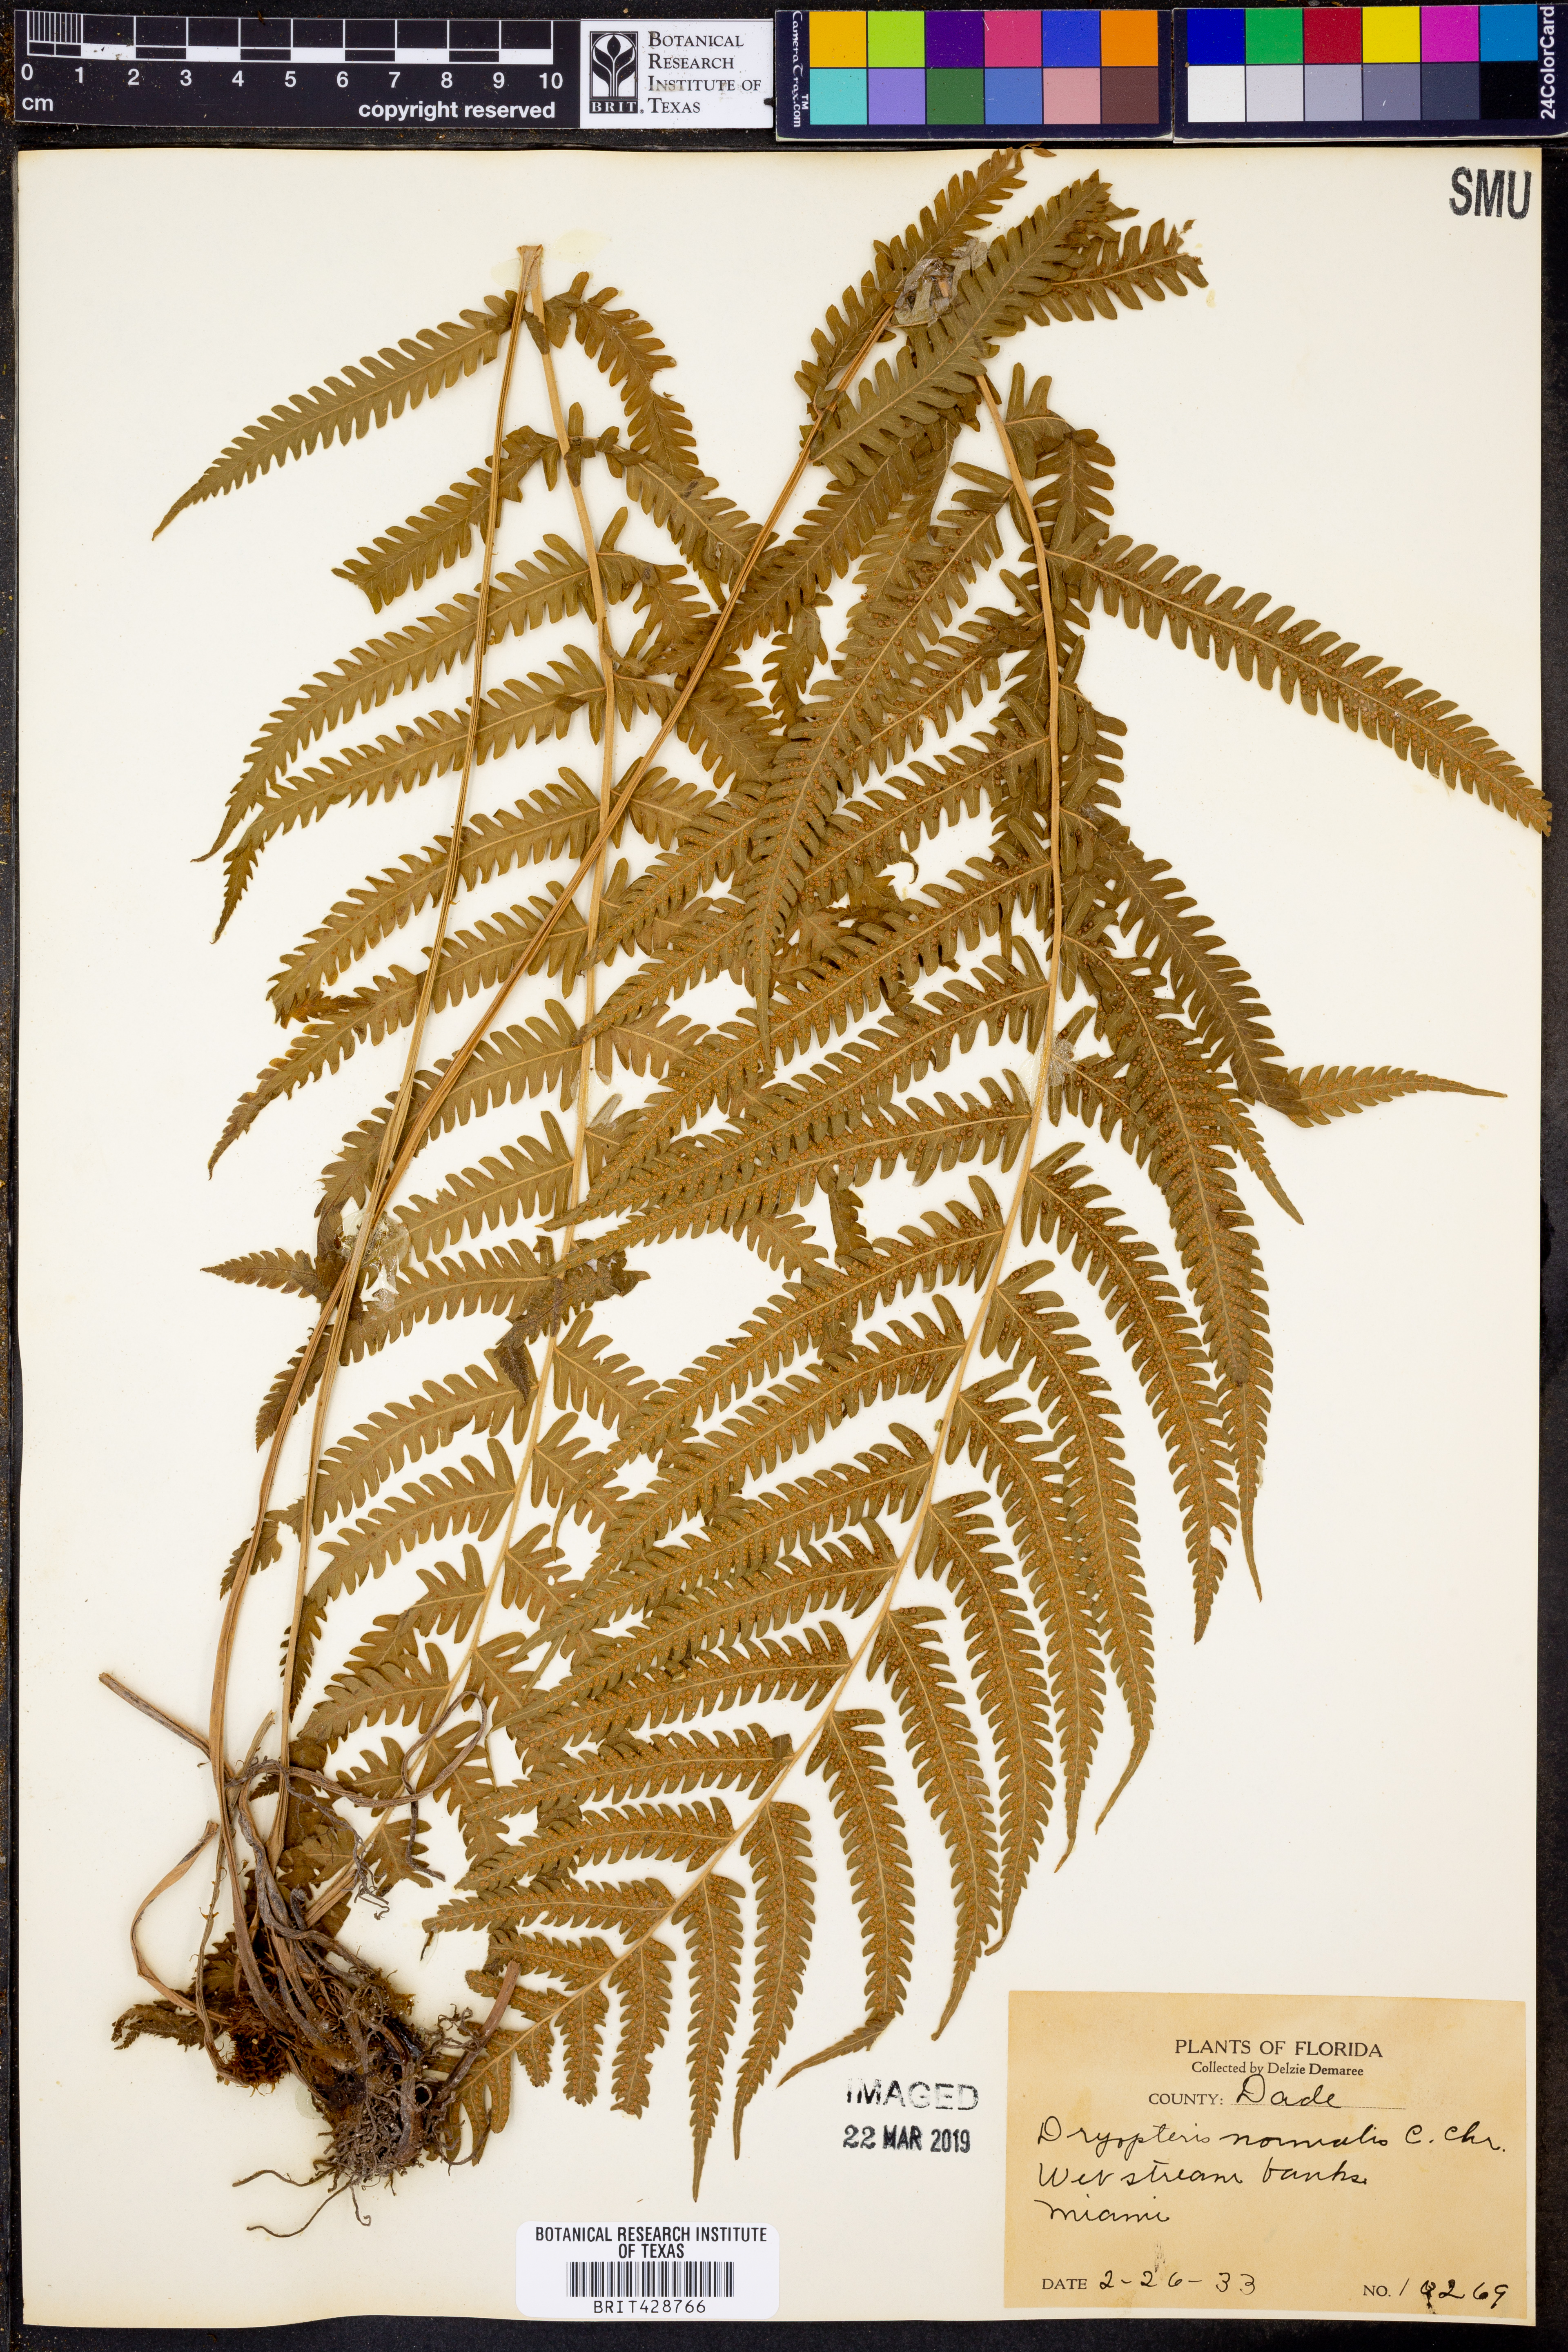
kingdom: Plantae
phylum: Tracheophyta
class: Polypodiopsida
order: Polypodiales
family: Thelypteridaceae
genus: Pelazoneuron
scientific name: Pelazoneuron kunthii
